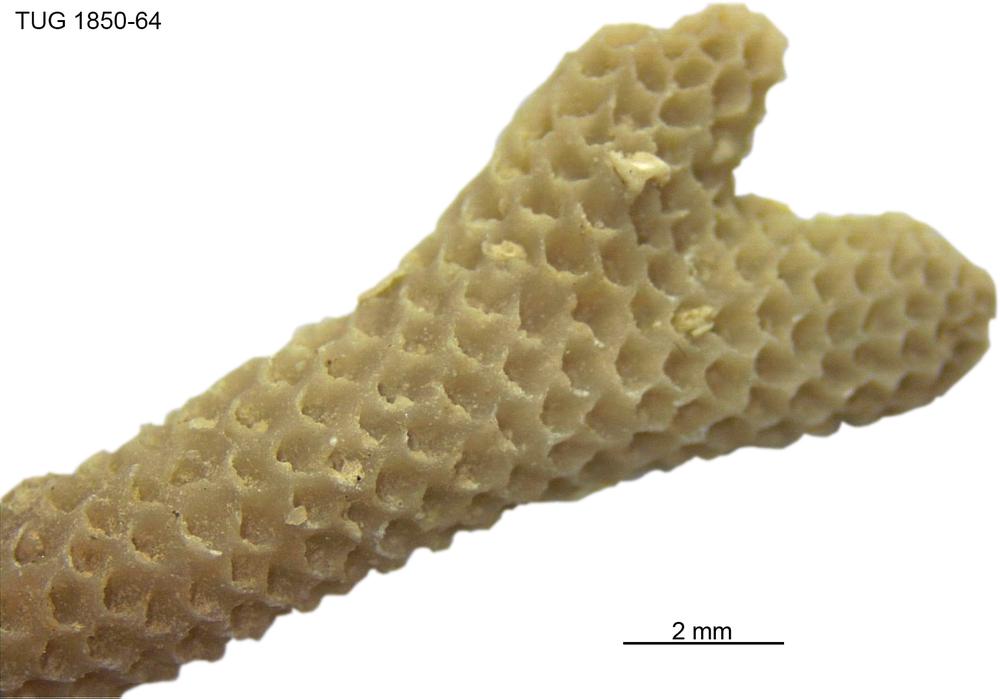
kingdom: Animalia
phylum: Cnidaria
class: Anthozoa
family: Coenitidae
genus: Coenites
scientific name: Coenites juniperinus
